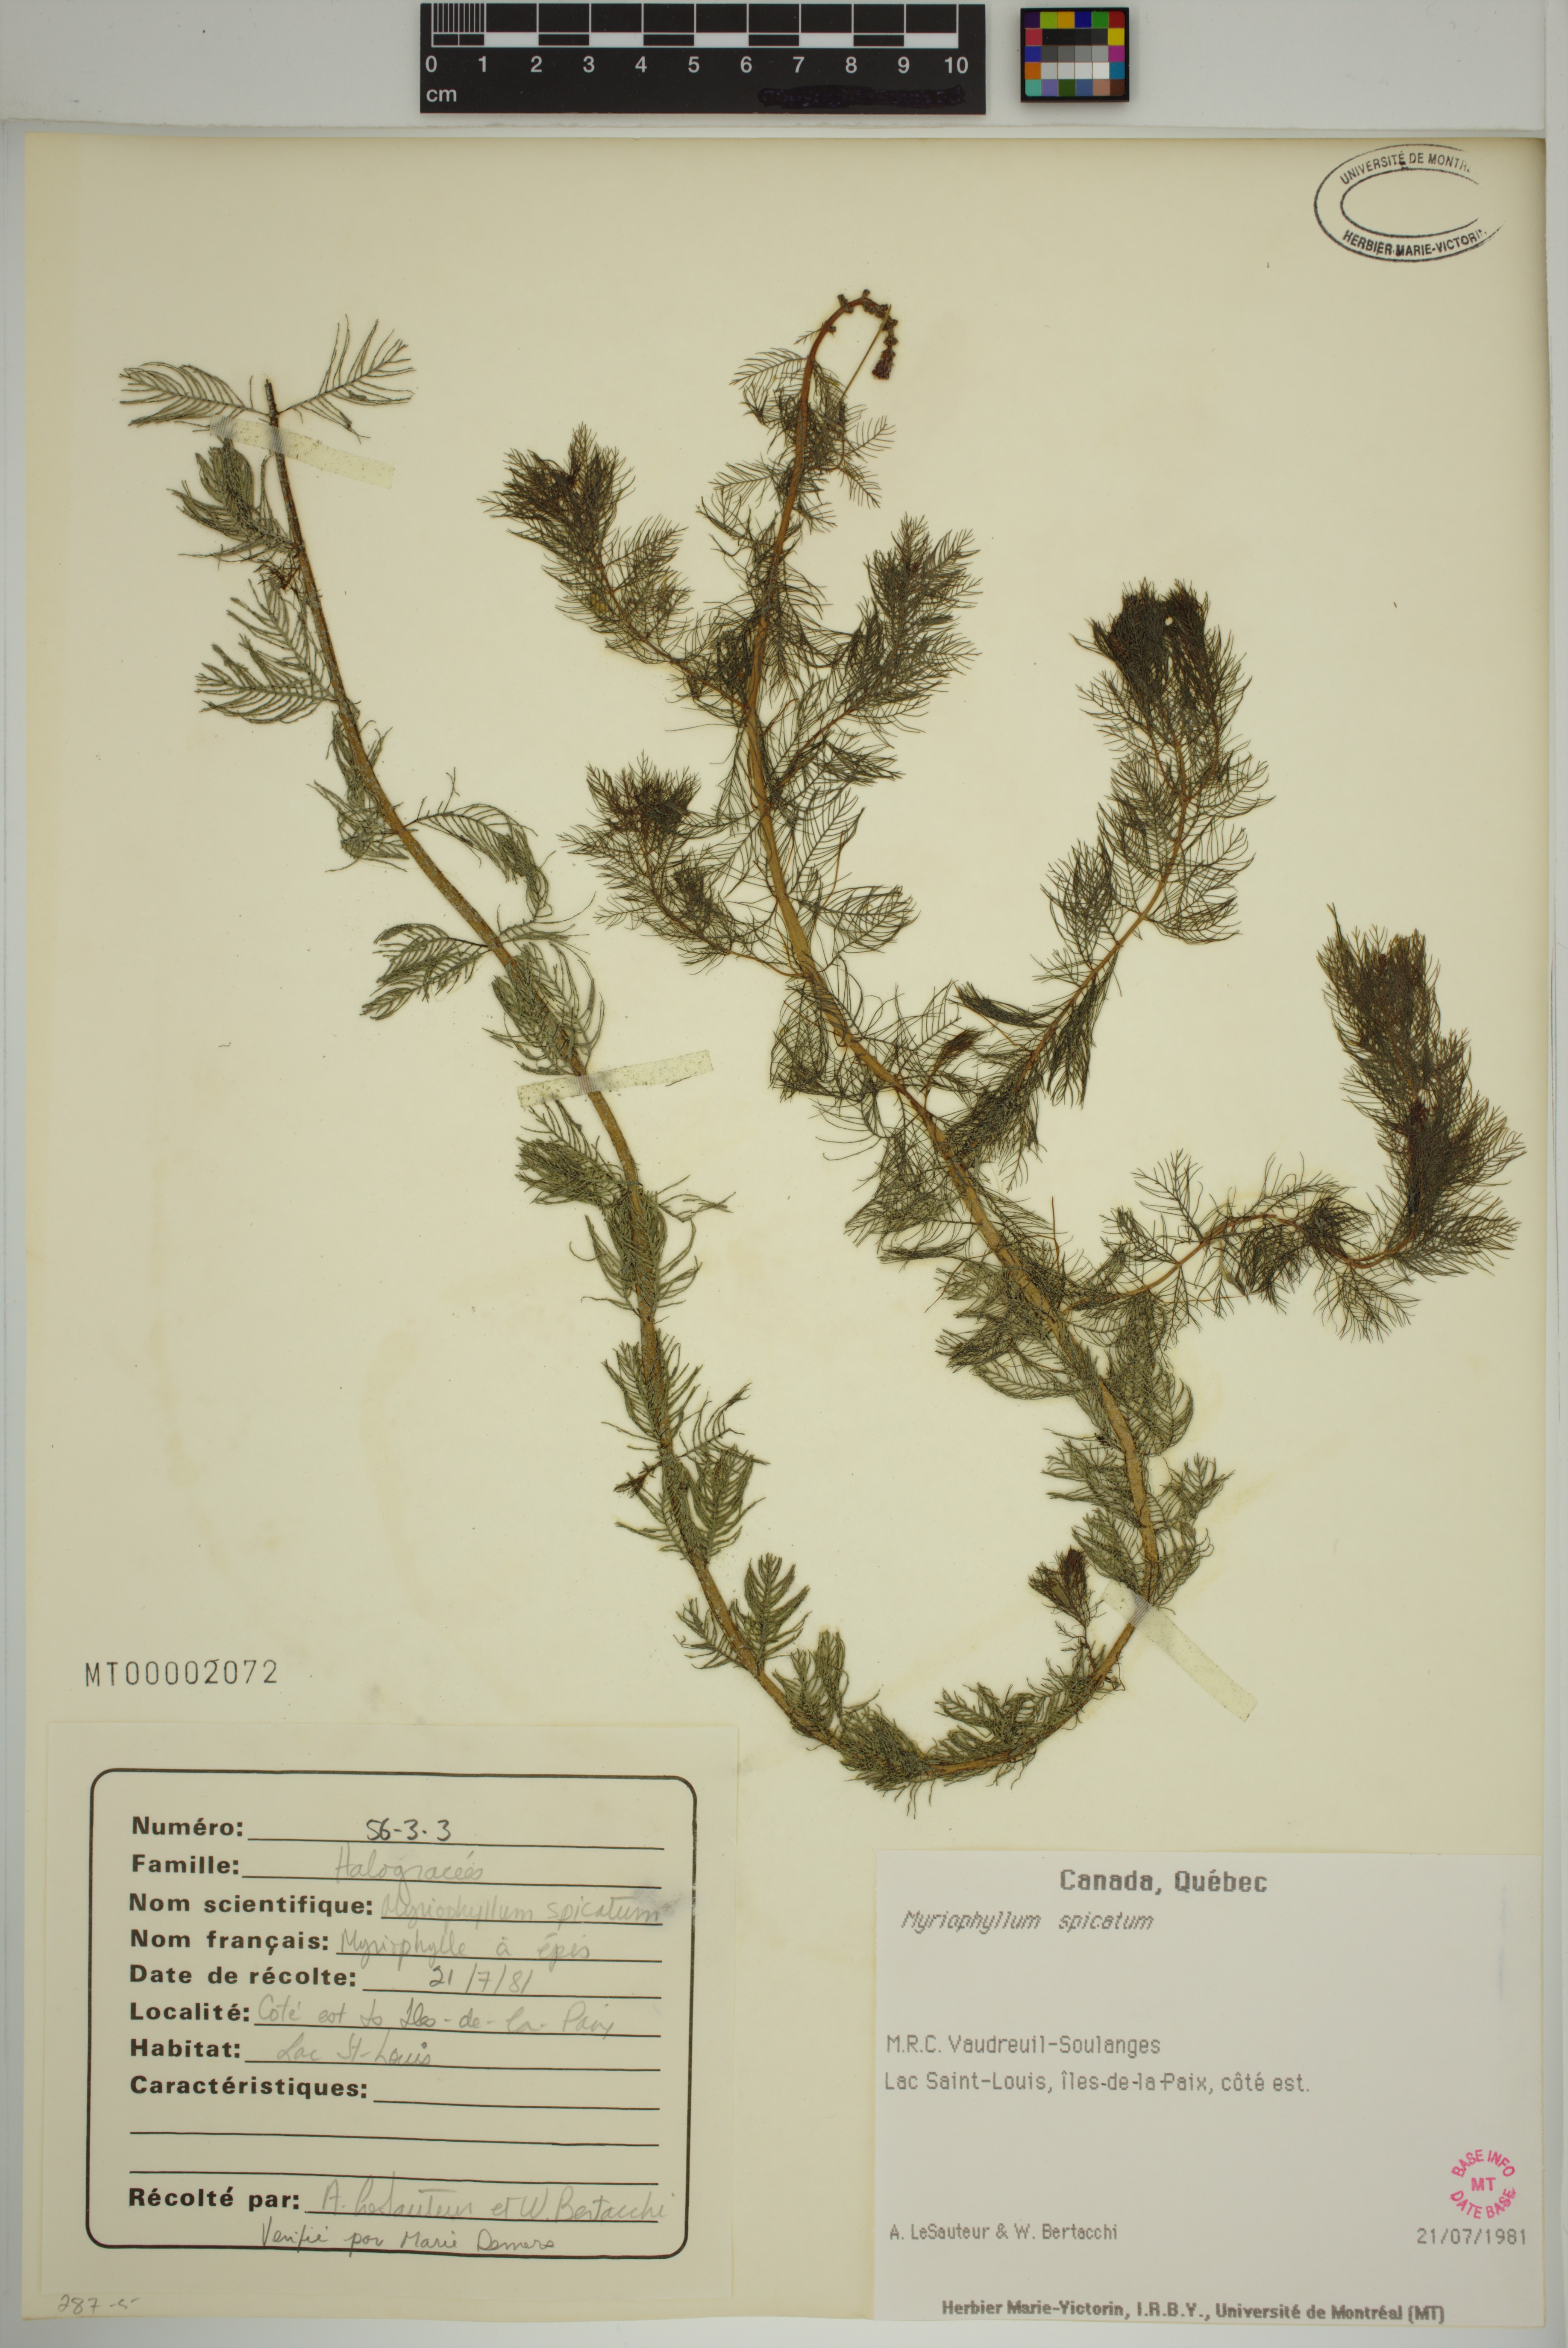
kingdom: Plantae
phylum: Tracheophyta
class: Magnoliopsida
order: Saxifragales
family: Haloragaceae
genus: Myriophyllum
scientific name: Myriophyllum spicatum
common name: Spiked water-milfoil
